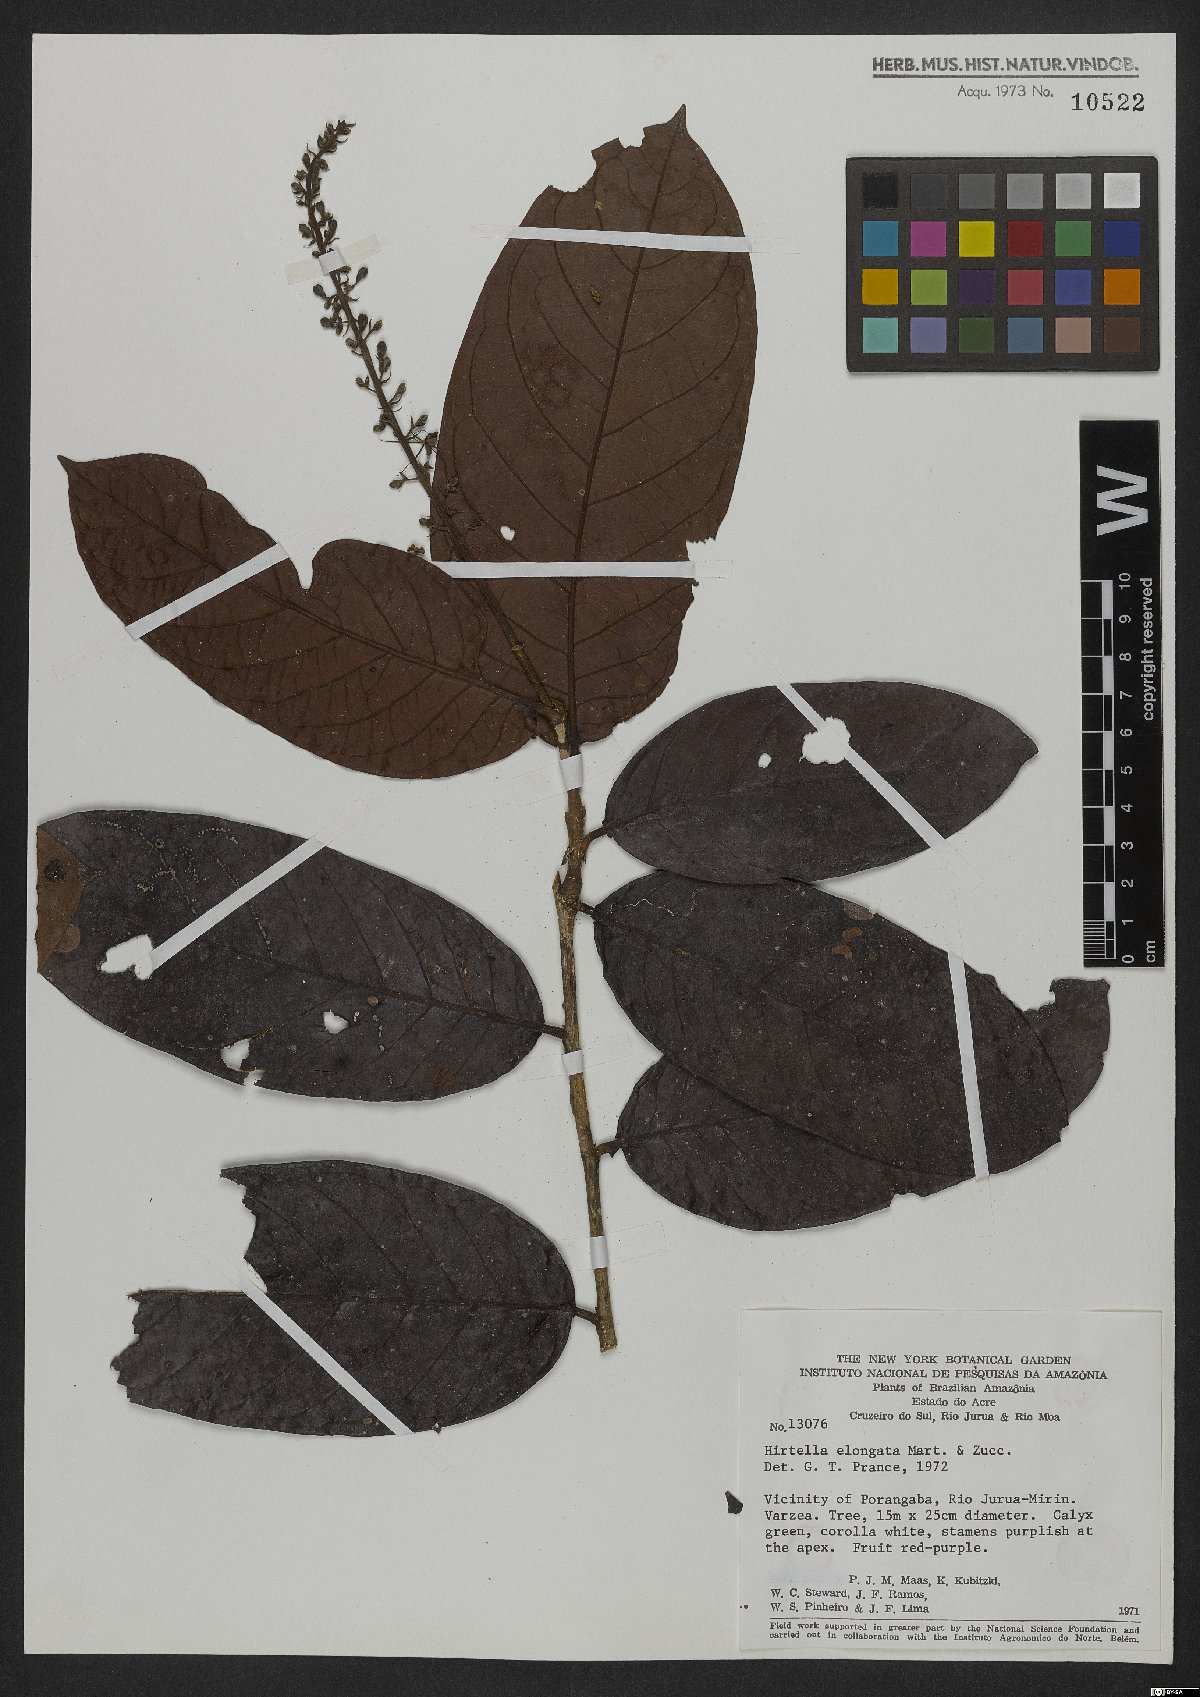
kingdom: Plantae
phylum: Tracheophyta
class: Magnoliopsida
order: Malpighiales
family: Chrysobalanaceae
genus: Hirtella
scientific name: Hirtella elongata
